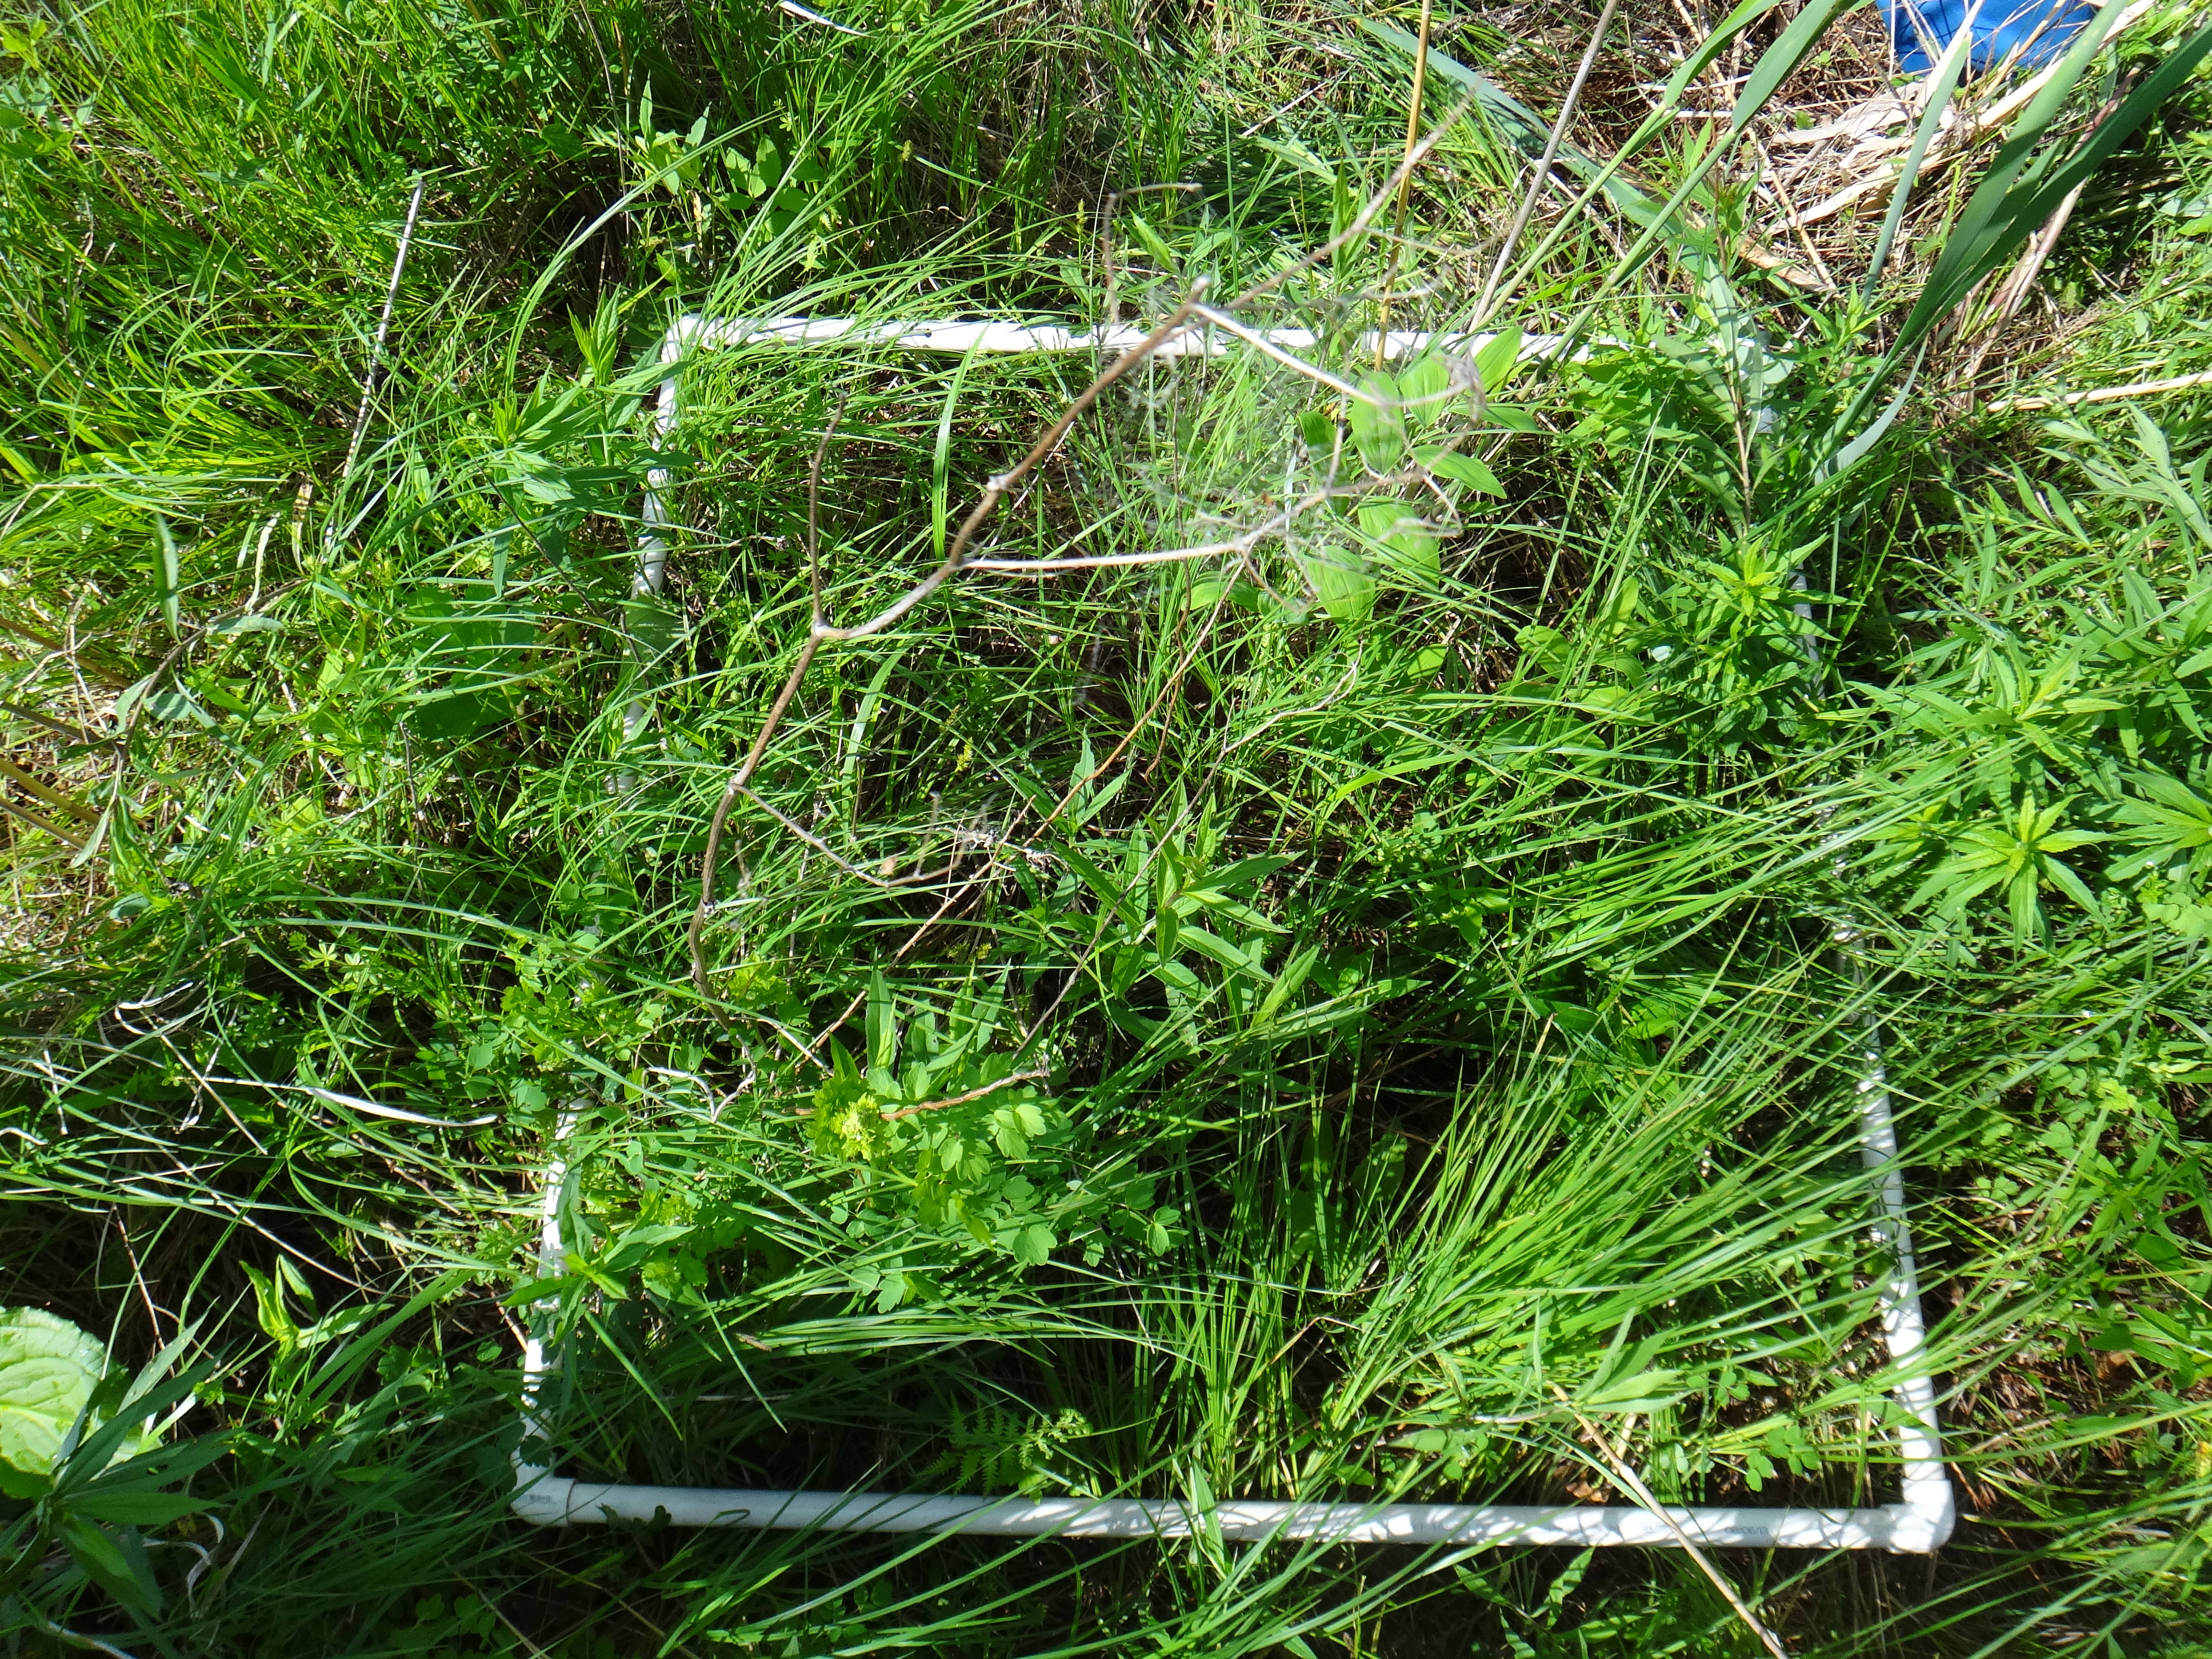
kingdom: Plantae
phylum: Tracheophyta
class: Liliopsida
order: Poales
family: Cyperaceae
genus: Carex
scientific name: Carex hystericina
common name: Bottlebrush sedge
